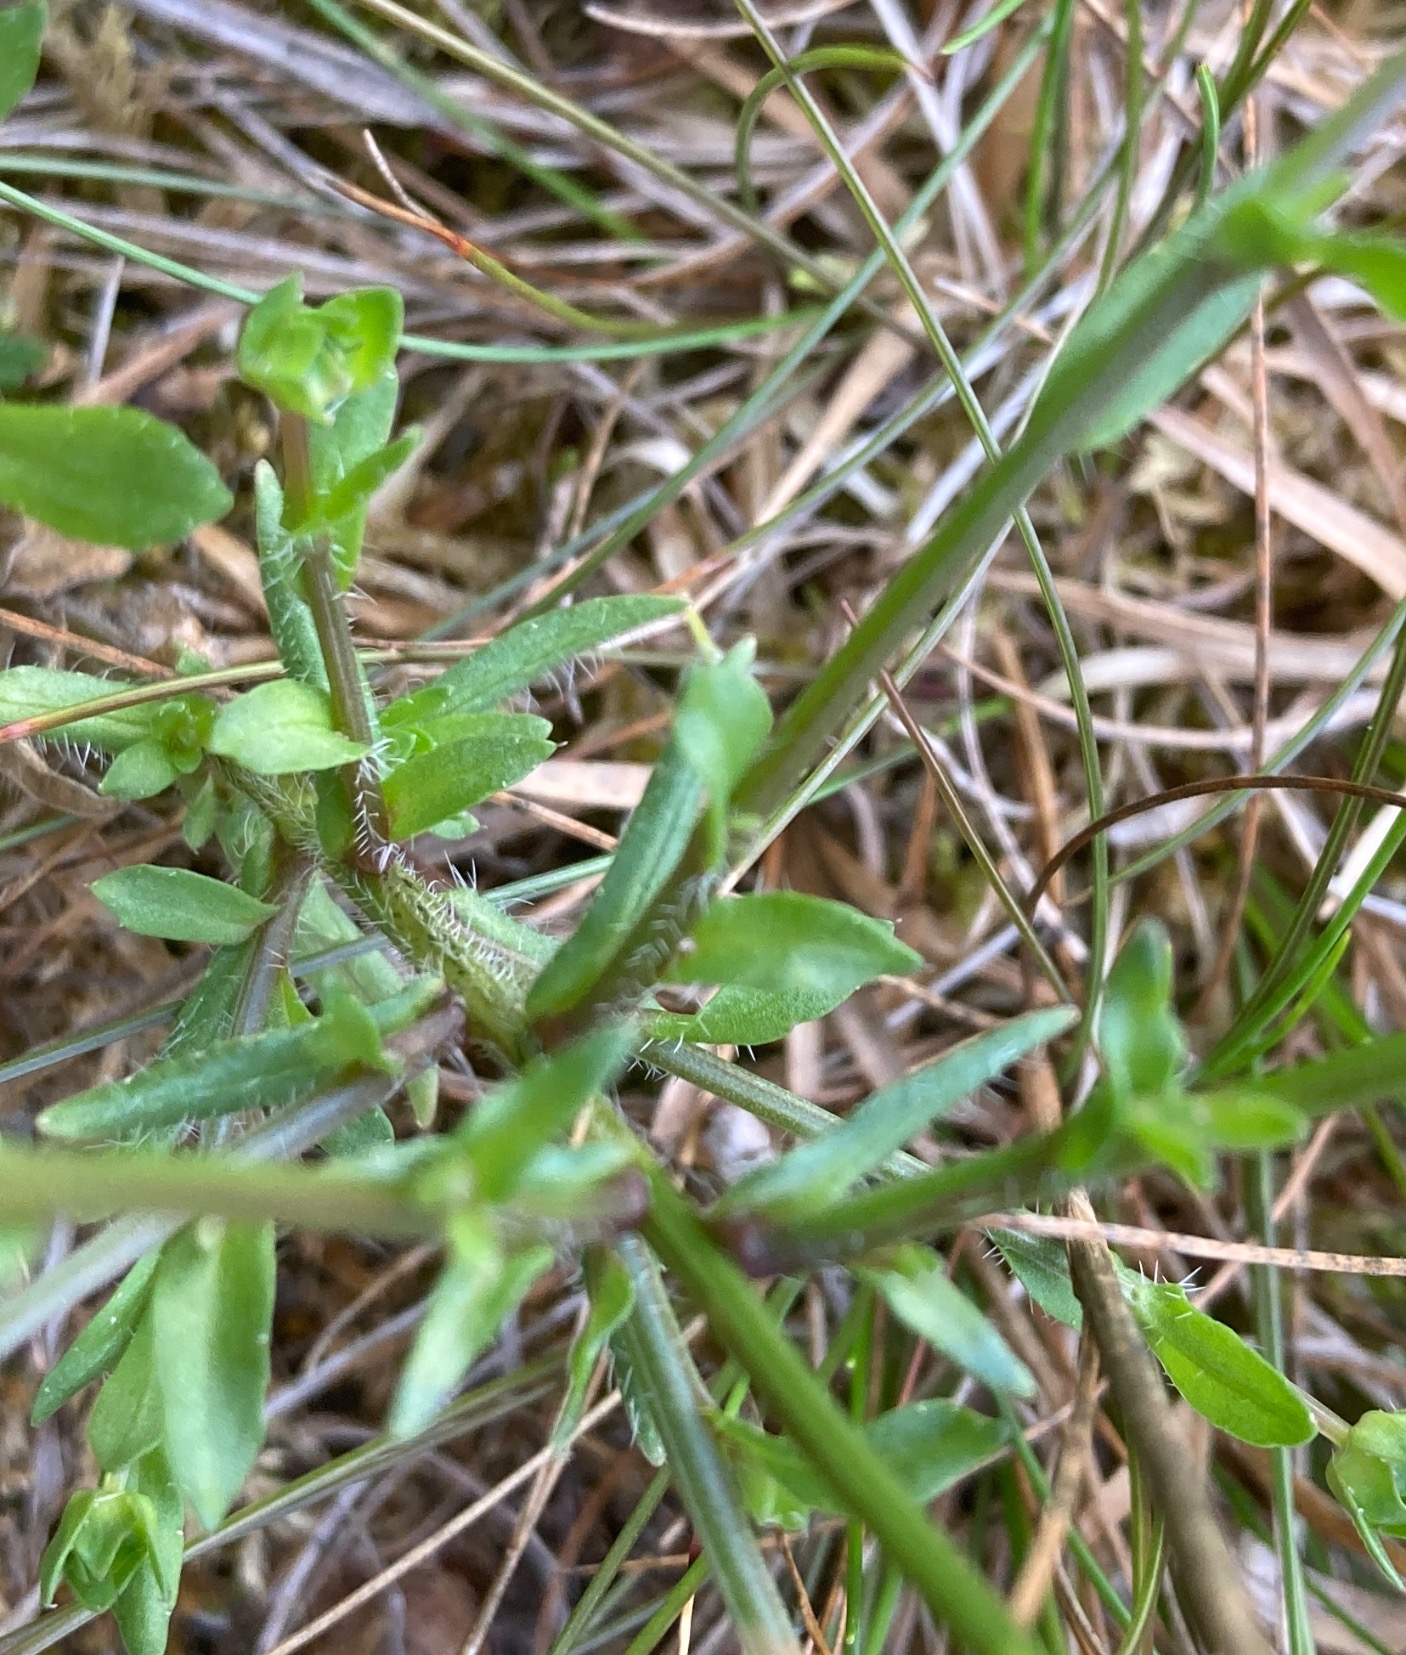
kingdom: Plantae
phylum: Tracheophyta
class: Magnoliopsida
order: Asterales
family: Campanulaceae
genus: Jasione
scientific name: Jasione montana
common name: Blåmunke
